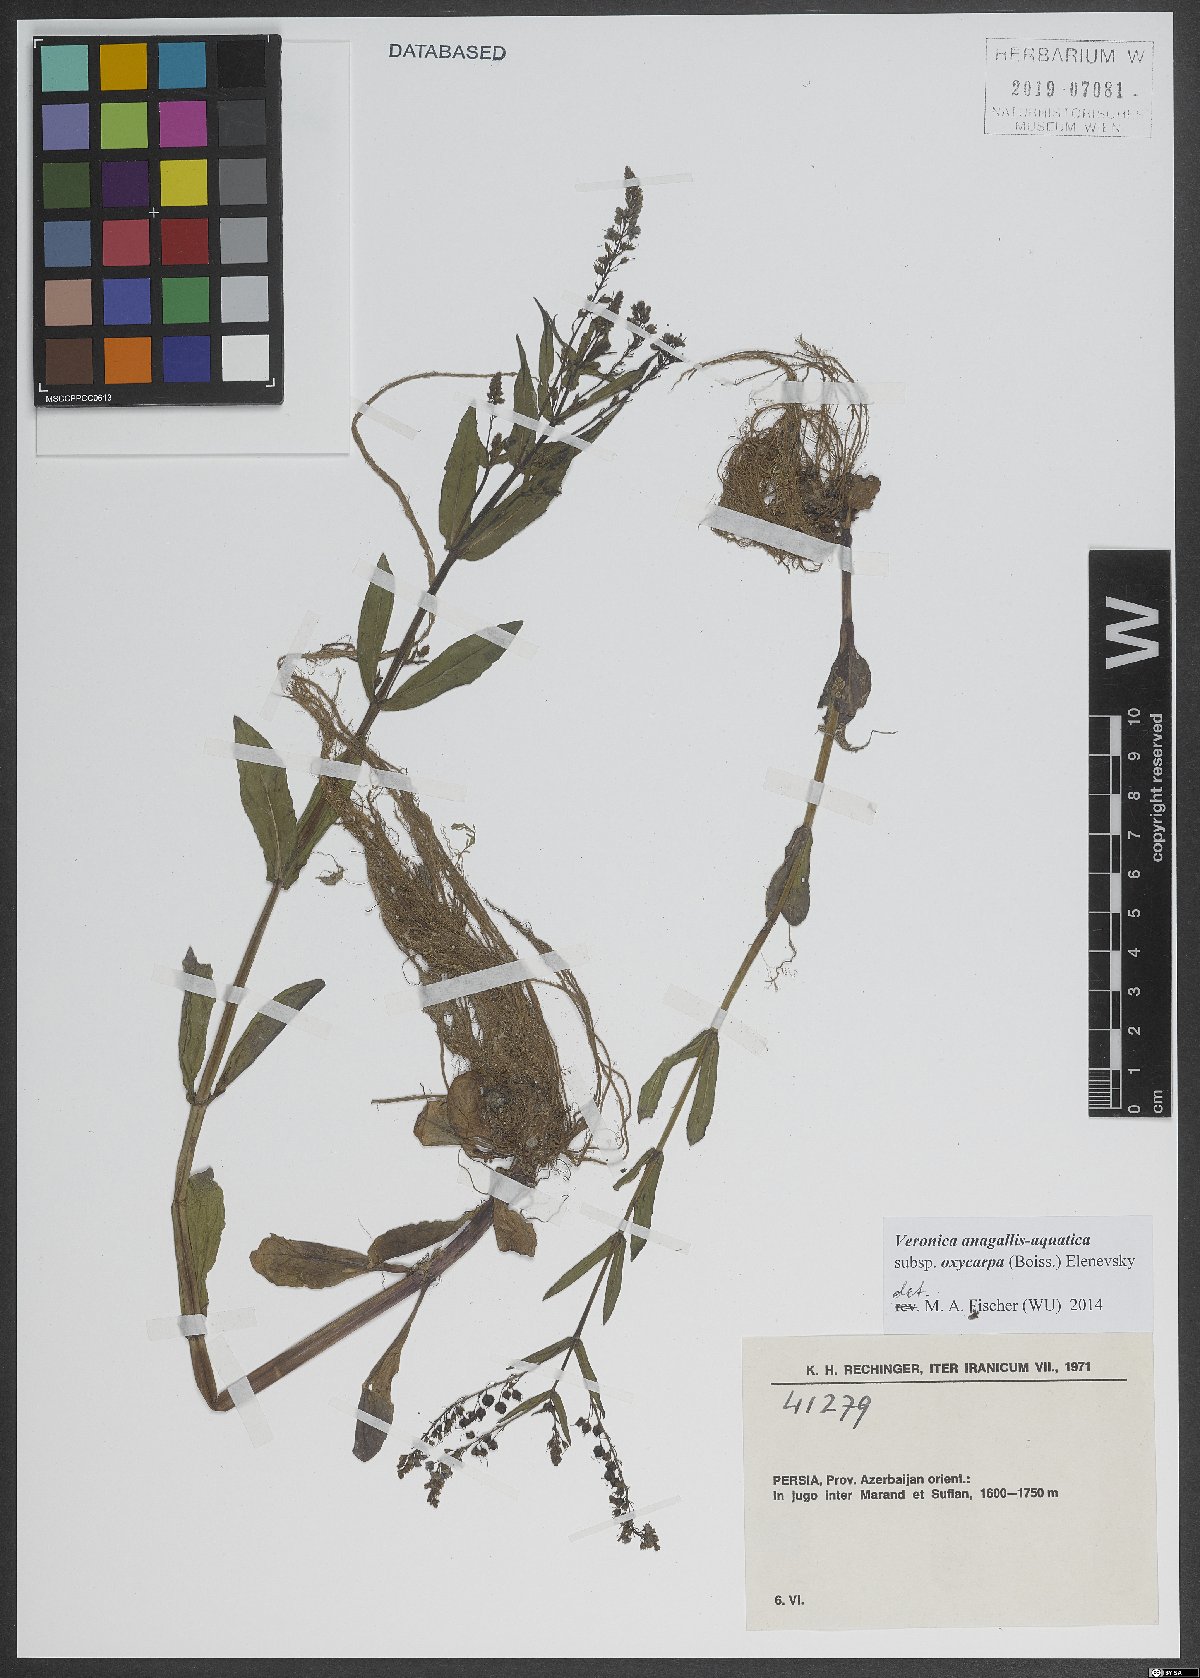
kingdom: Plantae
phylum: Tracheophyta
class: Magnoliopsida
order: Lamiales
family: Plantaginaceae
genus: Veronica
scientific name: Veronica oxycarpa
